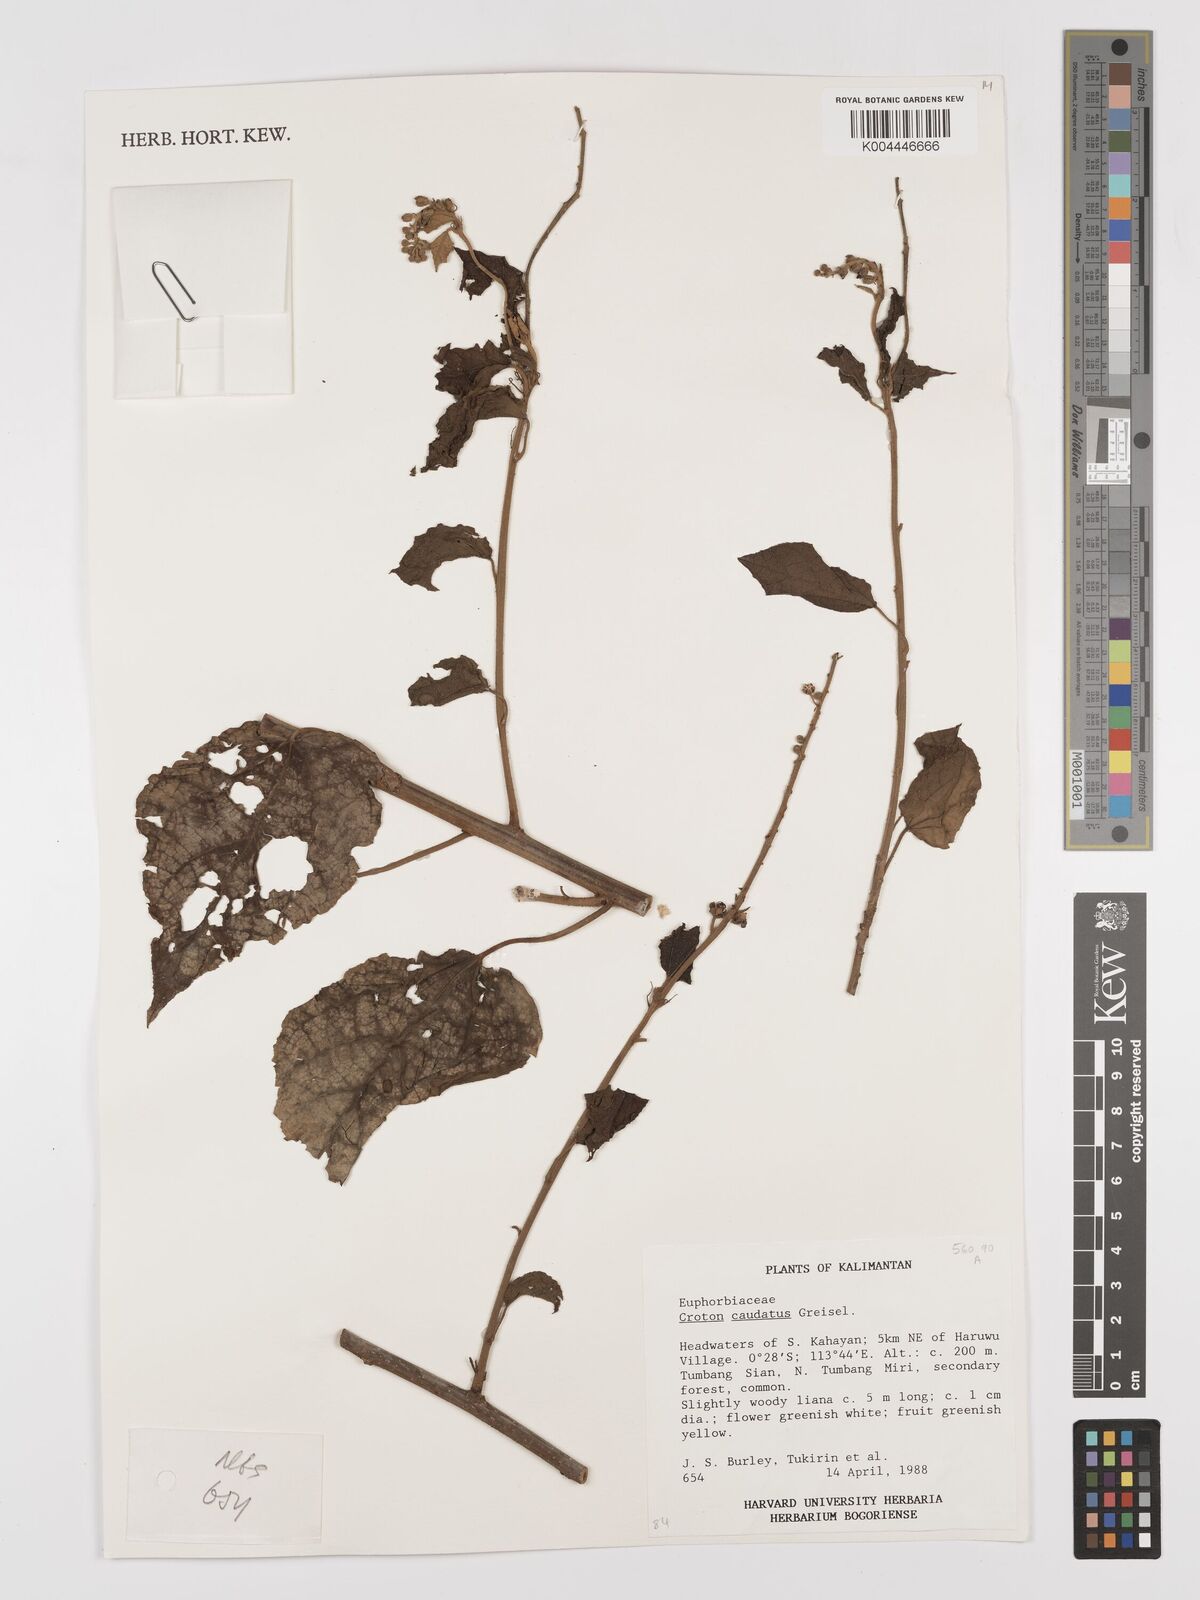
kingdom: Plantae
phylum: Tracheophyta
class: Magnoliopsida
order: Malpighiales
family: Euphorbiaceae
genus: Croton
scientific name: Croton caudatus
